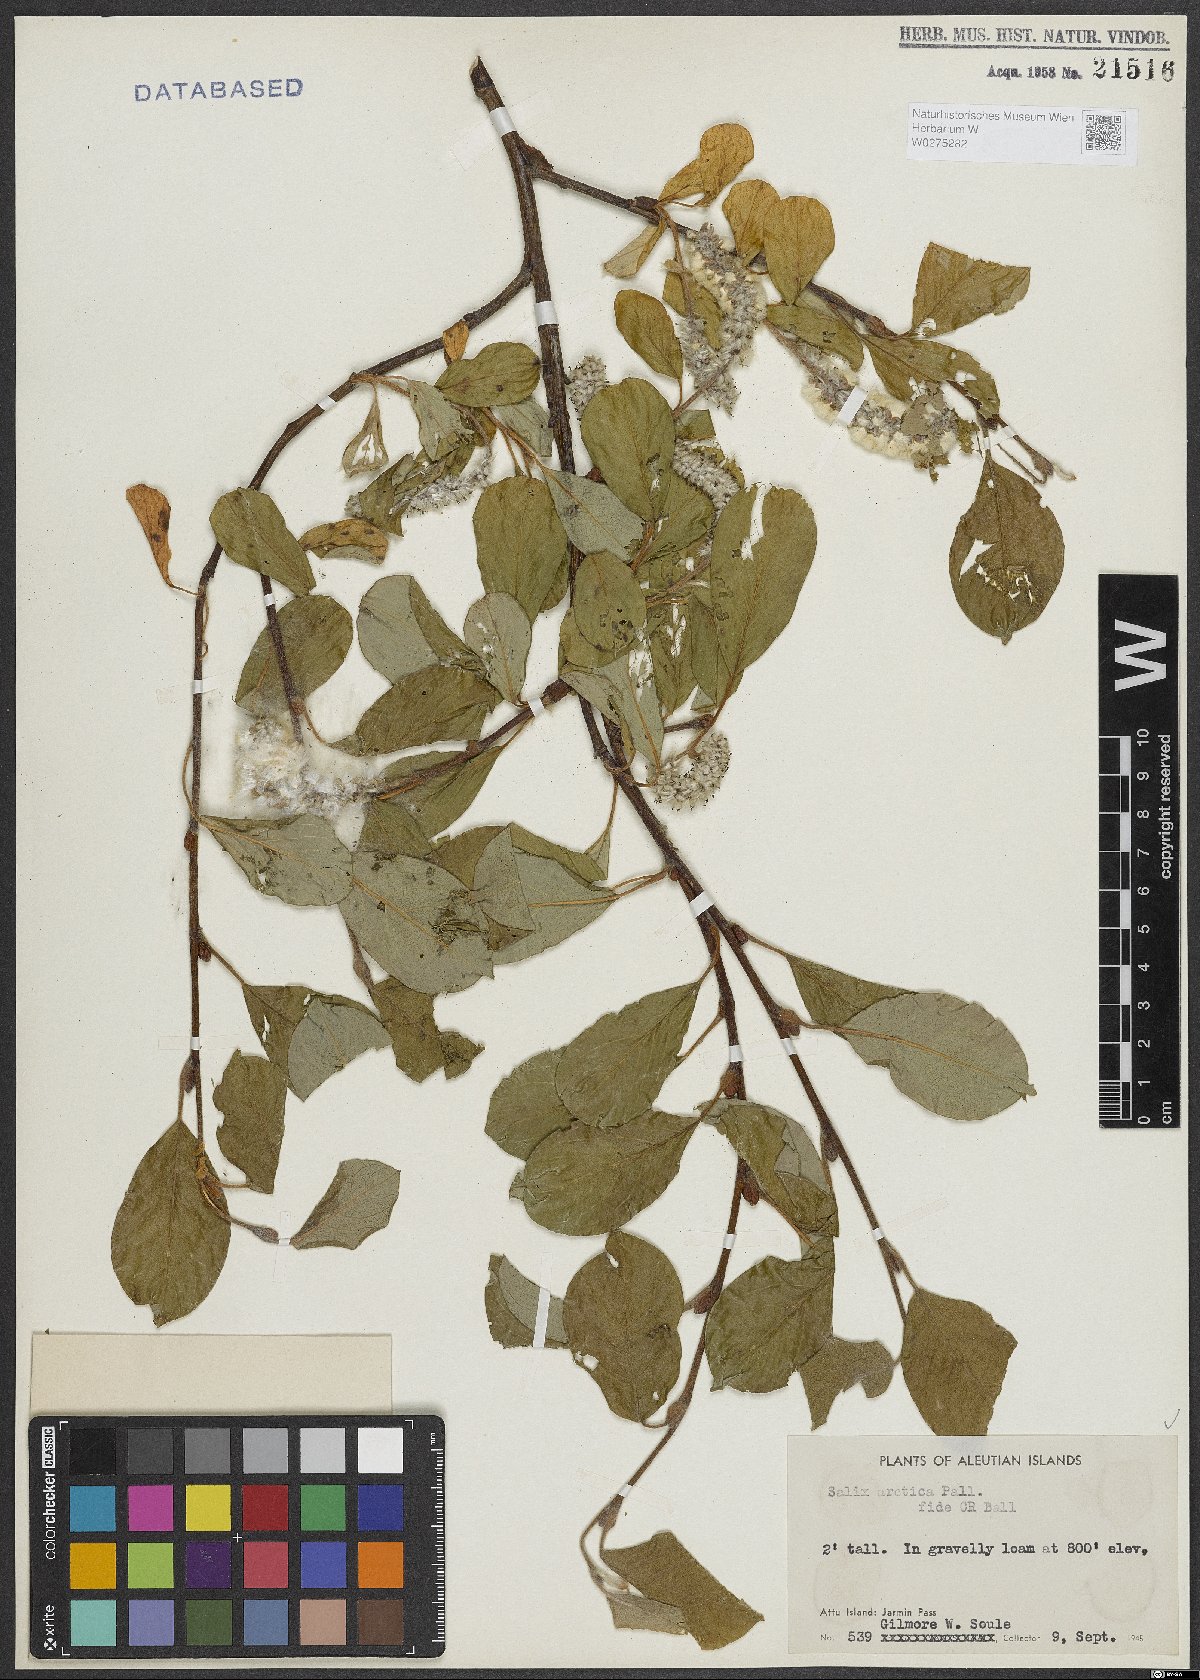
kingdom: Plantae
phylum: Tracheophyta
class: Magnoliopsida
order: Malpighiales
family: Salicaceae
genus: Salix
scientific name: Salix arctica
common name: Arctic willow
